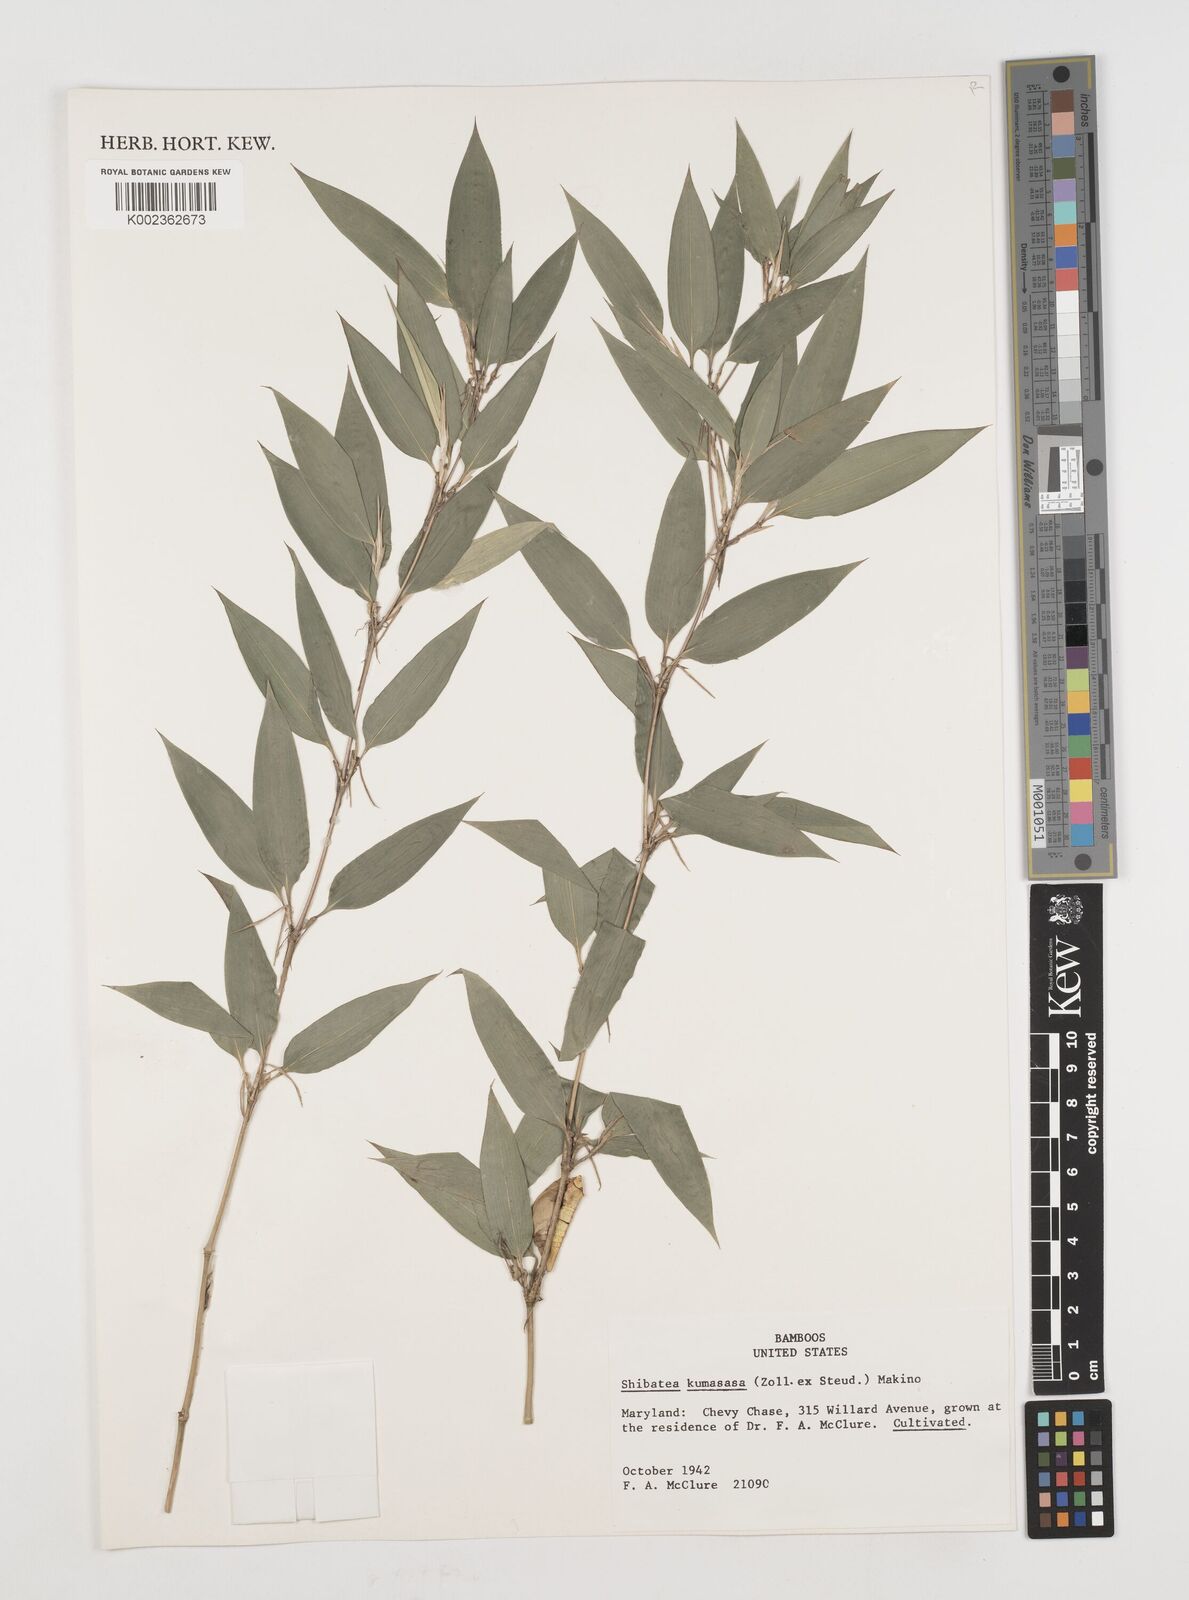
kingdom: Plantae
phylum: Tracheophyta
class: Liliopsida
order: Poales
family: Poaceae
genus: Shibataea
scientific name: Shibataea
